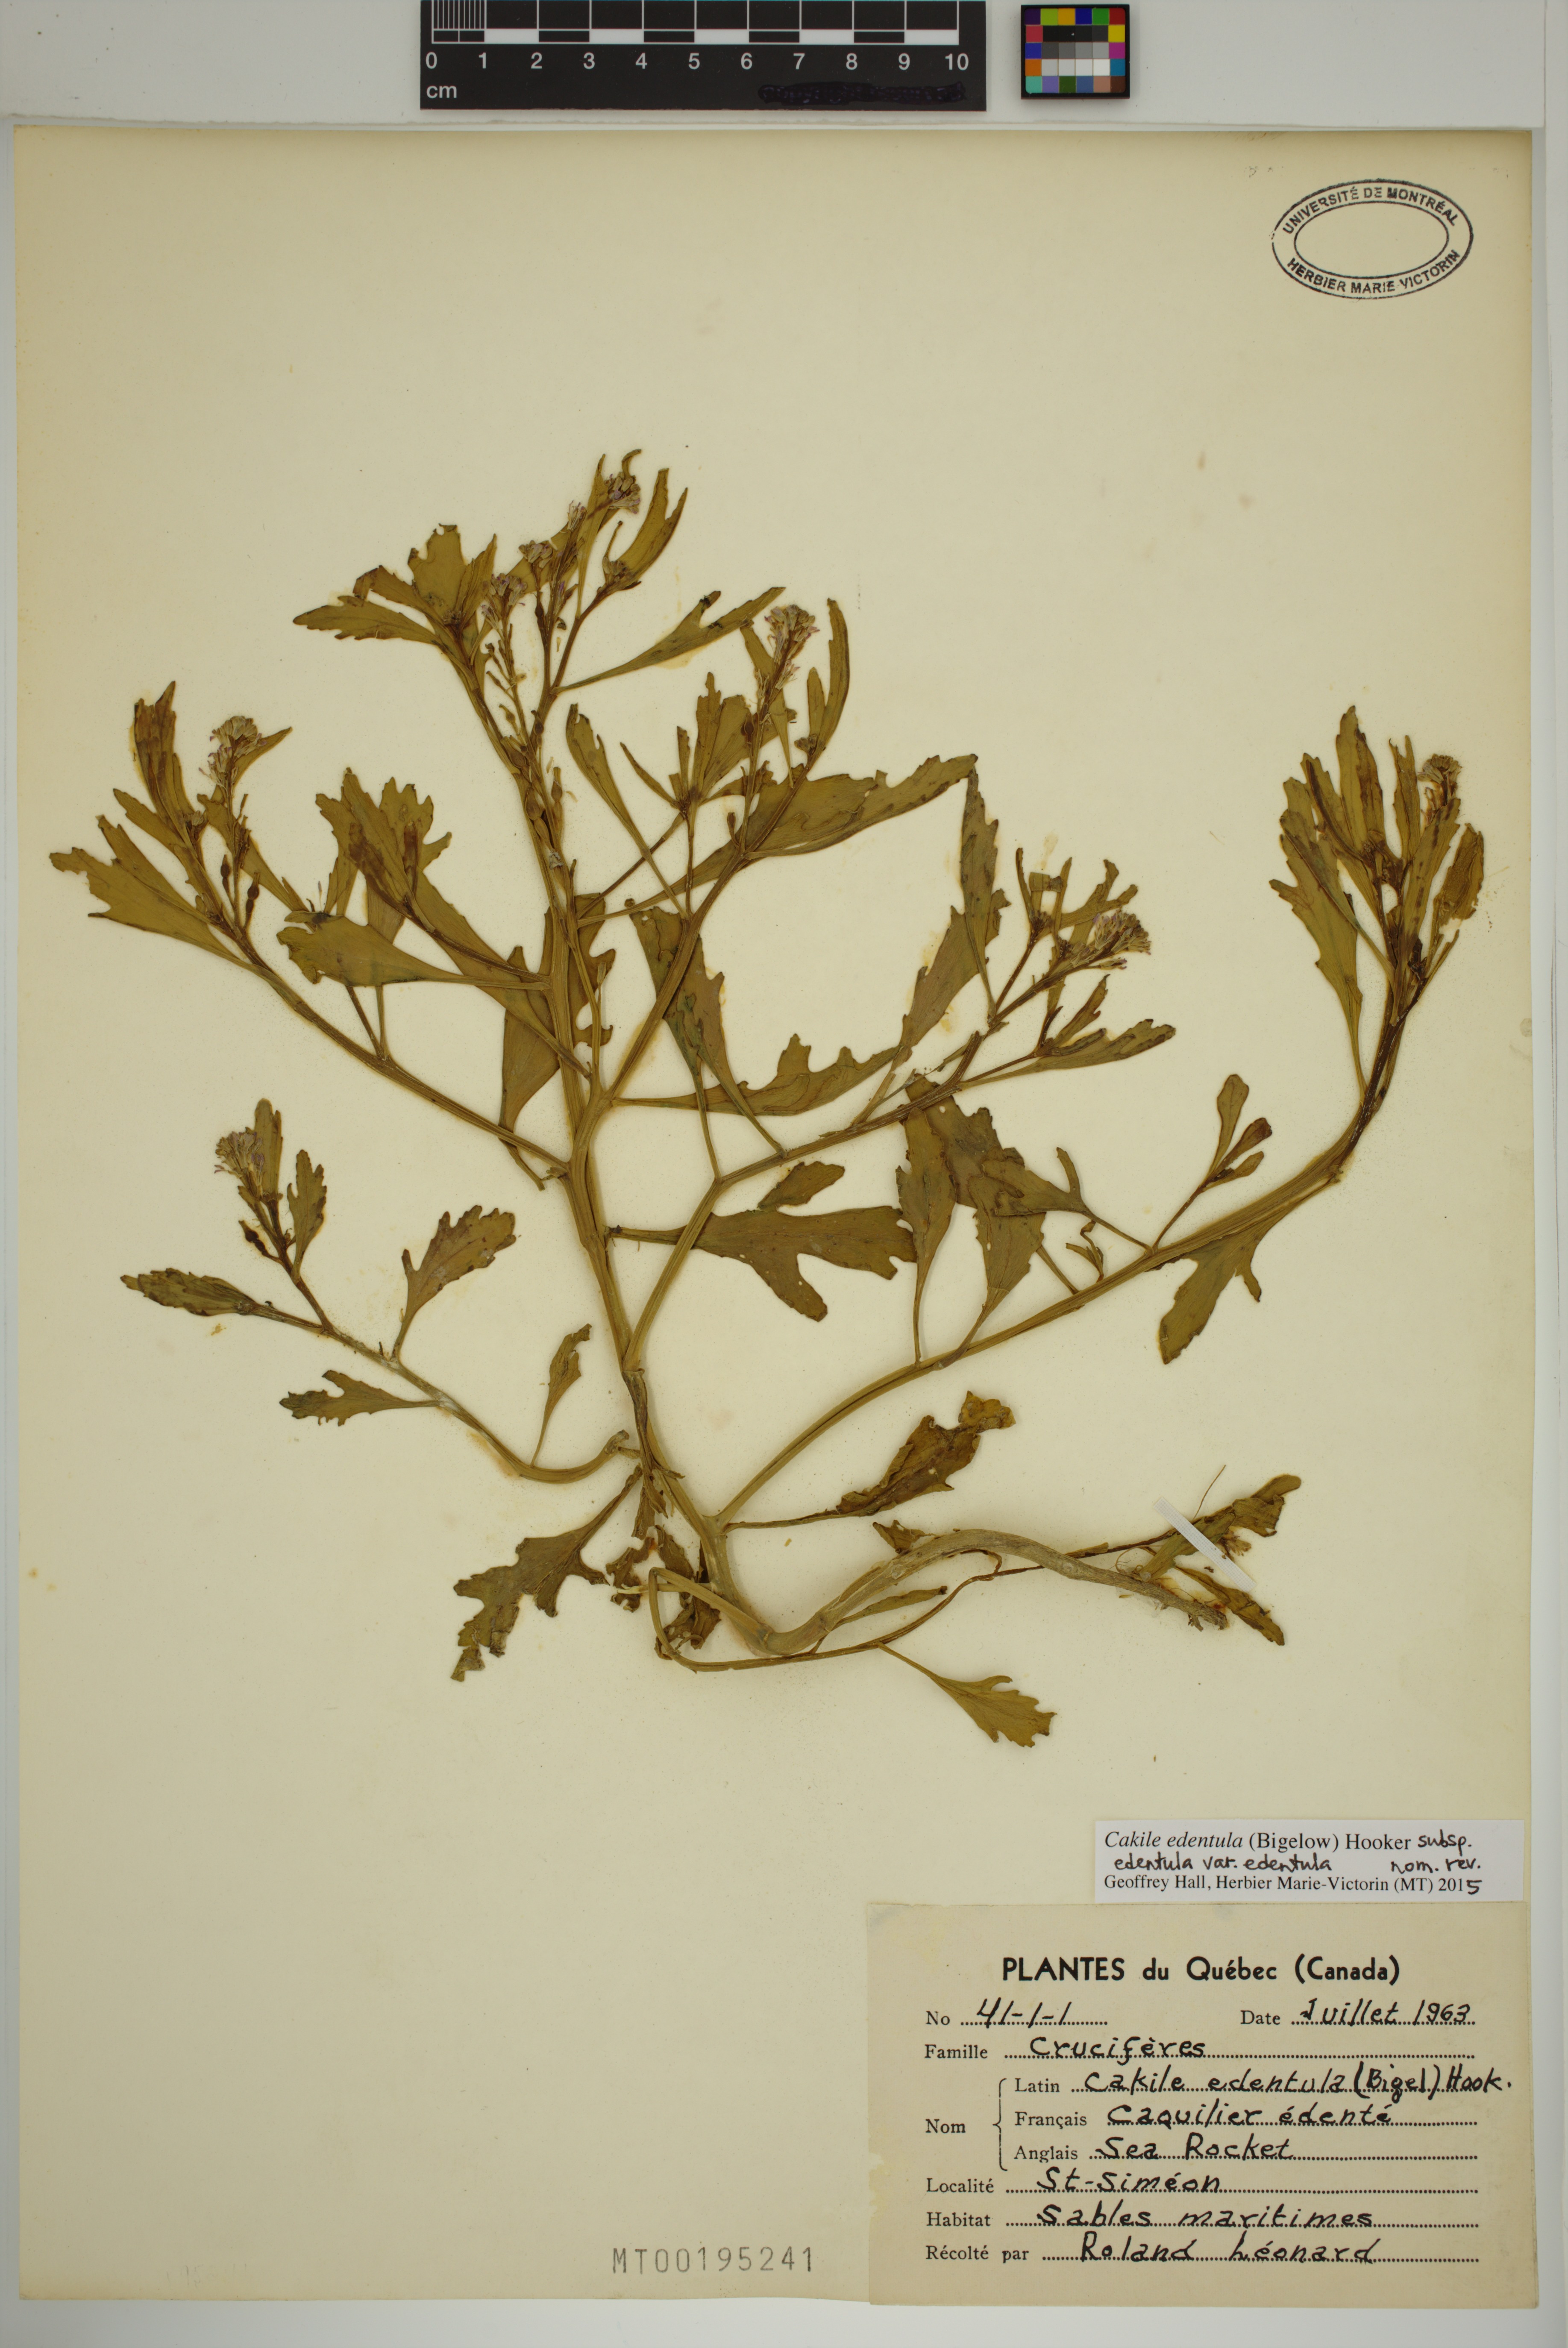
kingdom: Plantae
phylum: Tracheophyta
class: Magnoliopsida
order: Brassicales
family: Brassicaceae
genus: Cakile
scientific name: Cakile edentula
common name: American sea rocket
